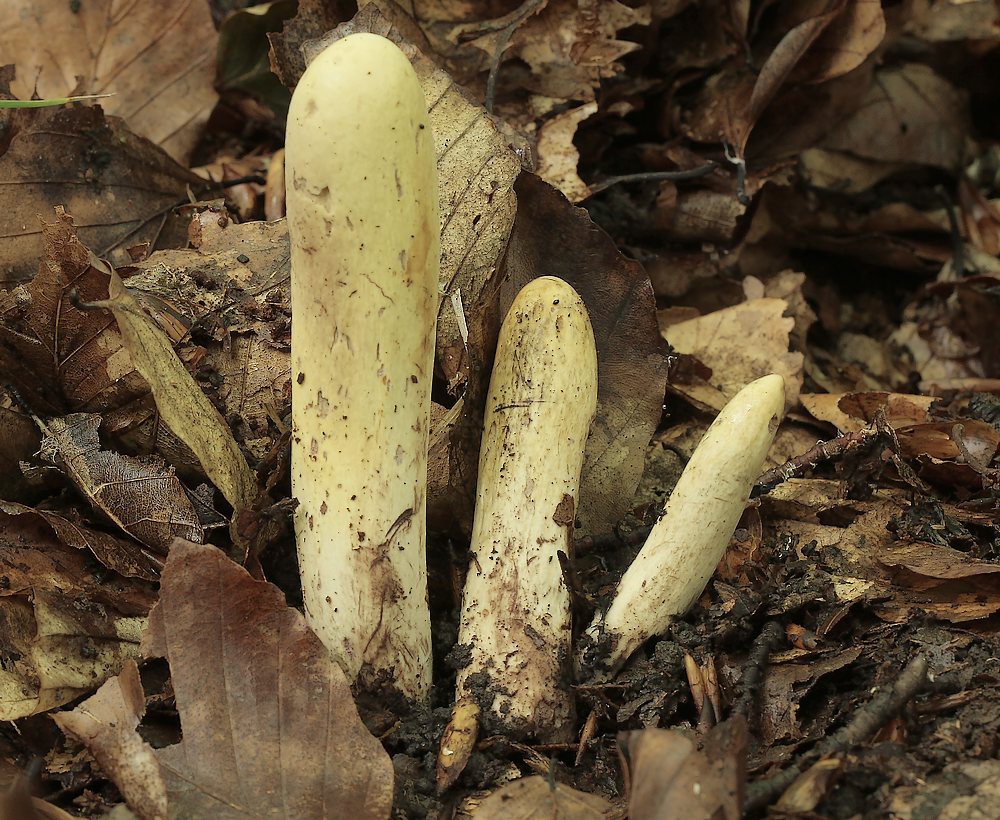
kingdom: Fungi
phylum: Basidiomycota
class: Agaricomycetes
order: Gomphales
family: Clavariadelphaceae
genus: Clavariadelphus
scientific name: Clavariadelphus pistillaris
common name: herkules-kæmpekølle
